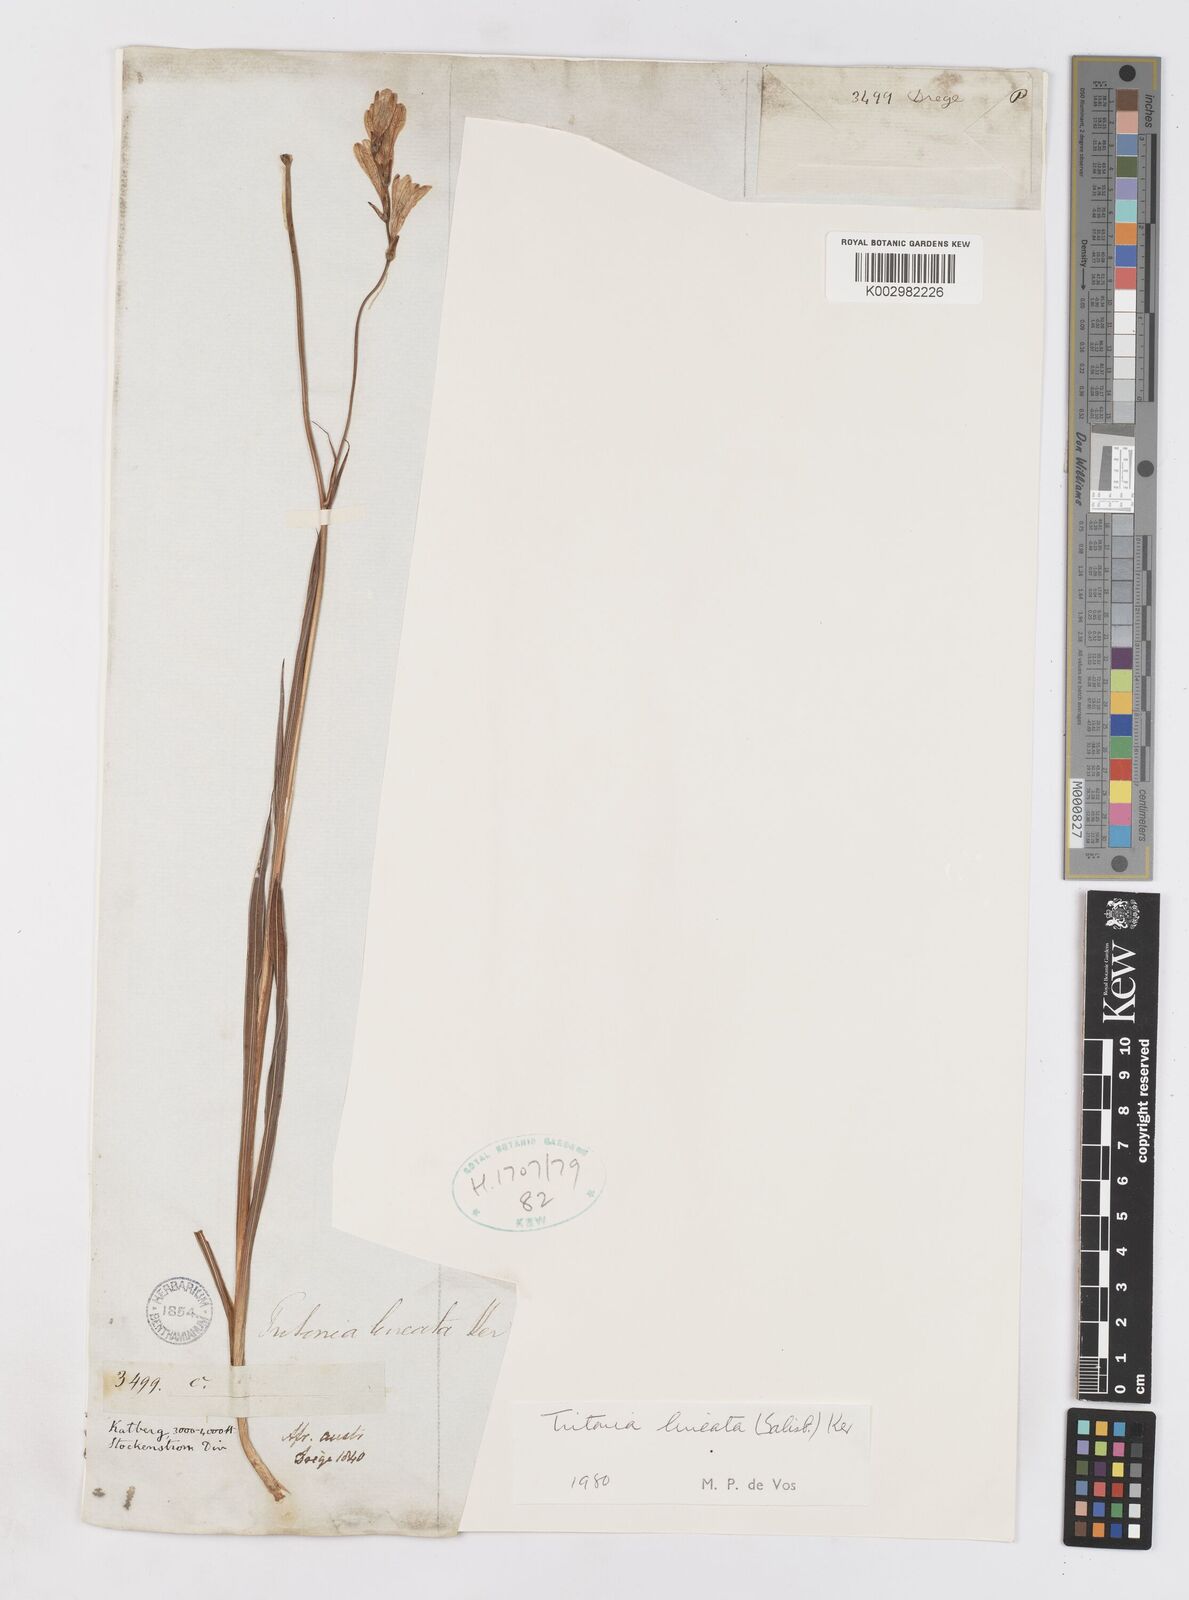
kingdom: Plantae
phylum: Tracheophyta
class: Liliopsida
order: Asparagales
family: Iridaceae
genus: Tritonia
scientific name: Tritonia gladiolaris
